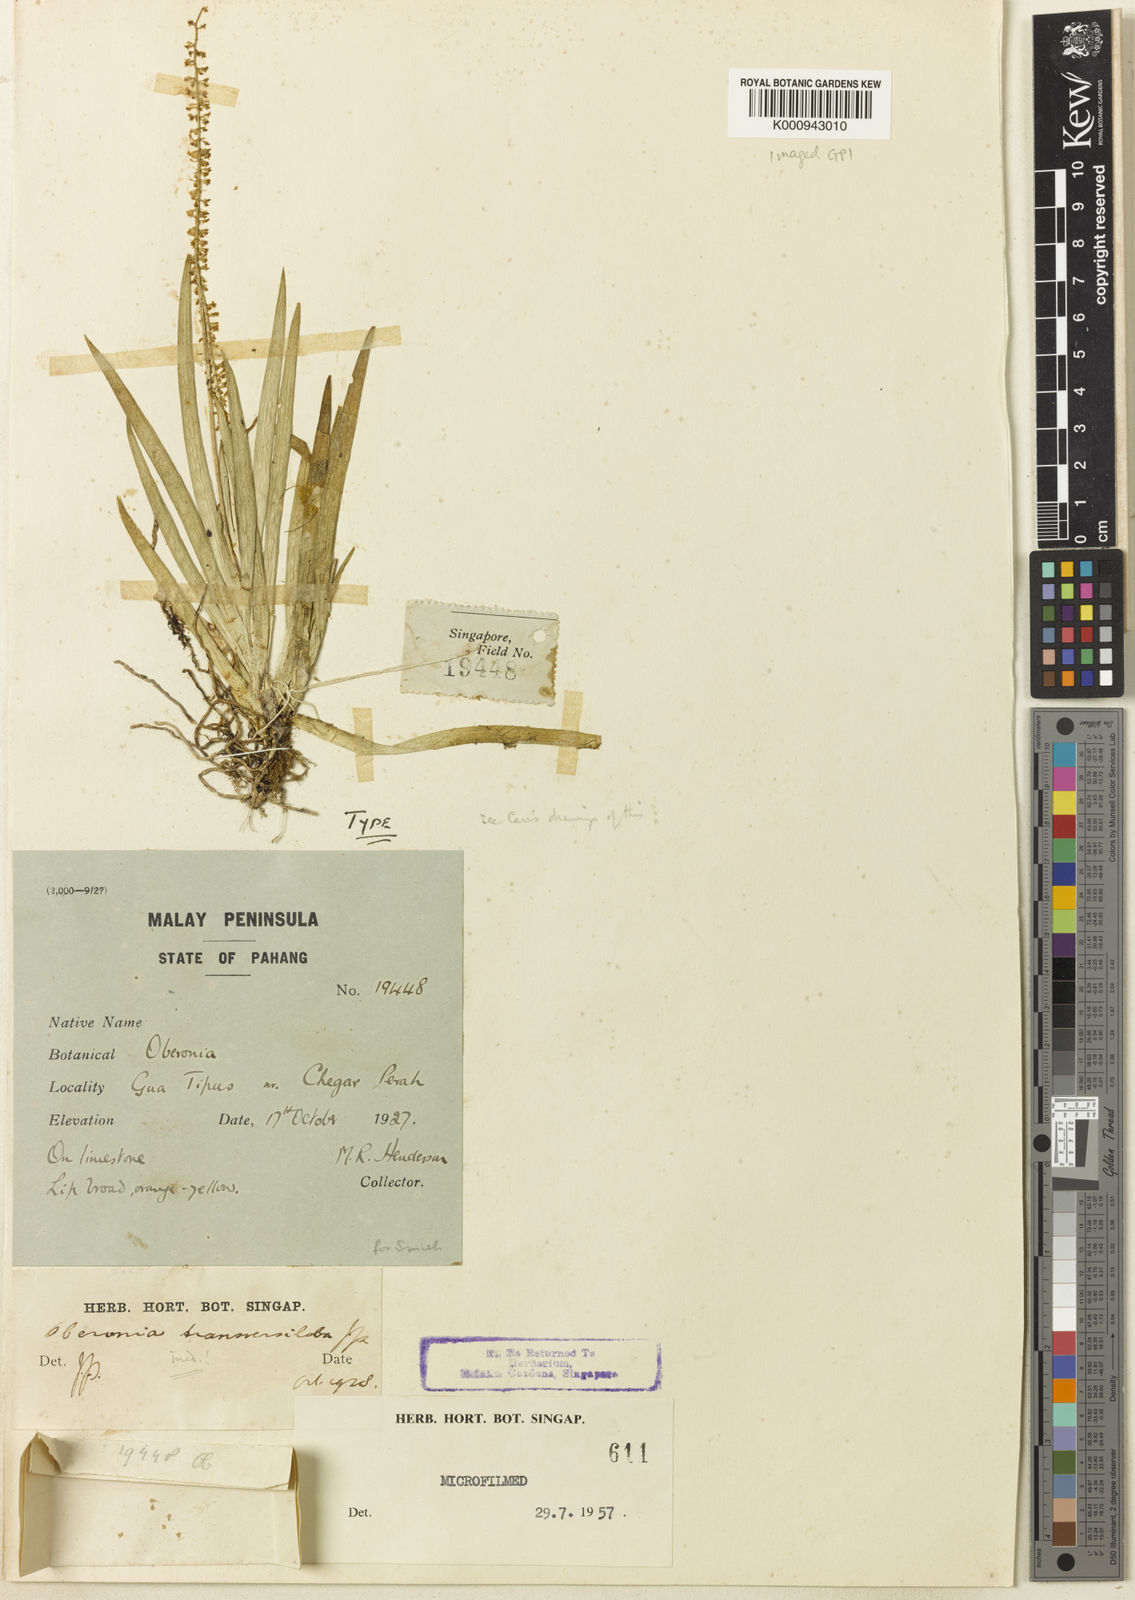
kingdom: Plantae
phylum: Tracheophyta
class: Liliopsida
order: Asparagales
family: Orchidaceae
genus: Oberonia
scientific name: Oberonia transversiloba
